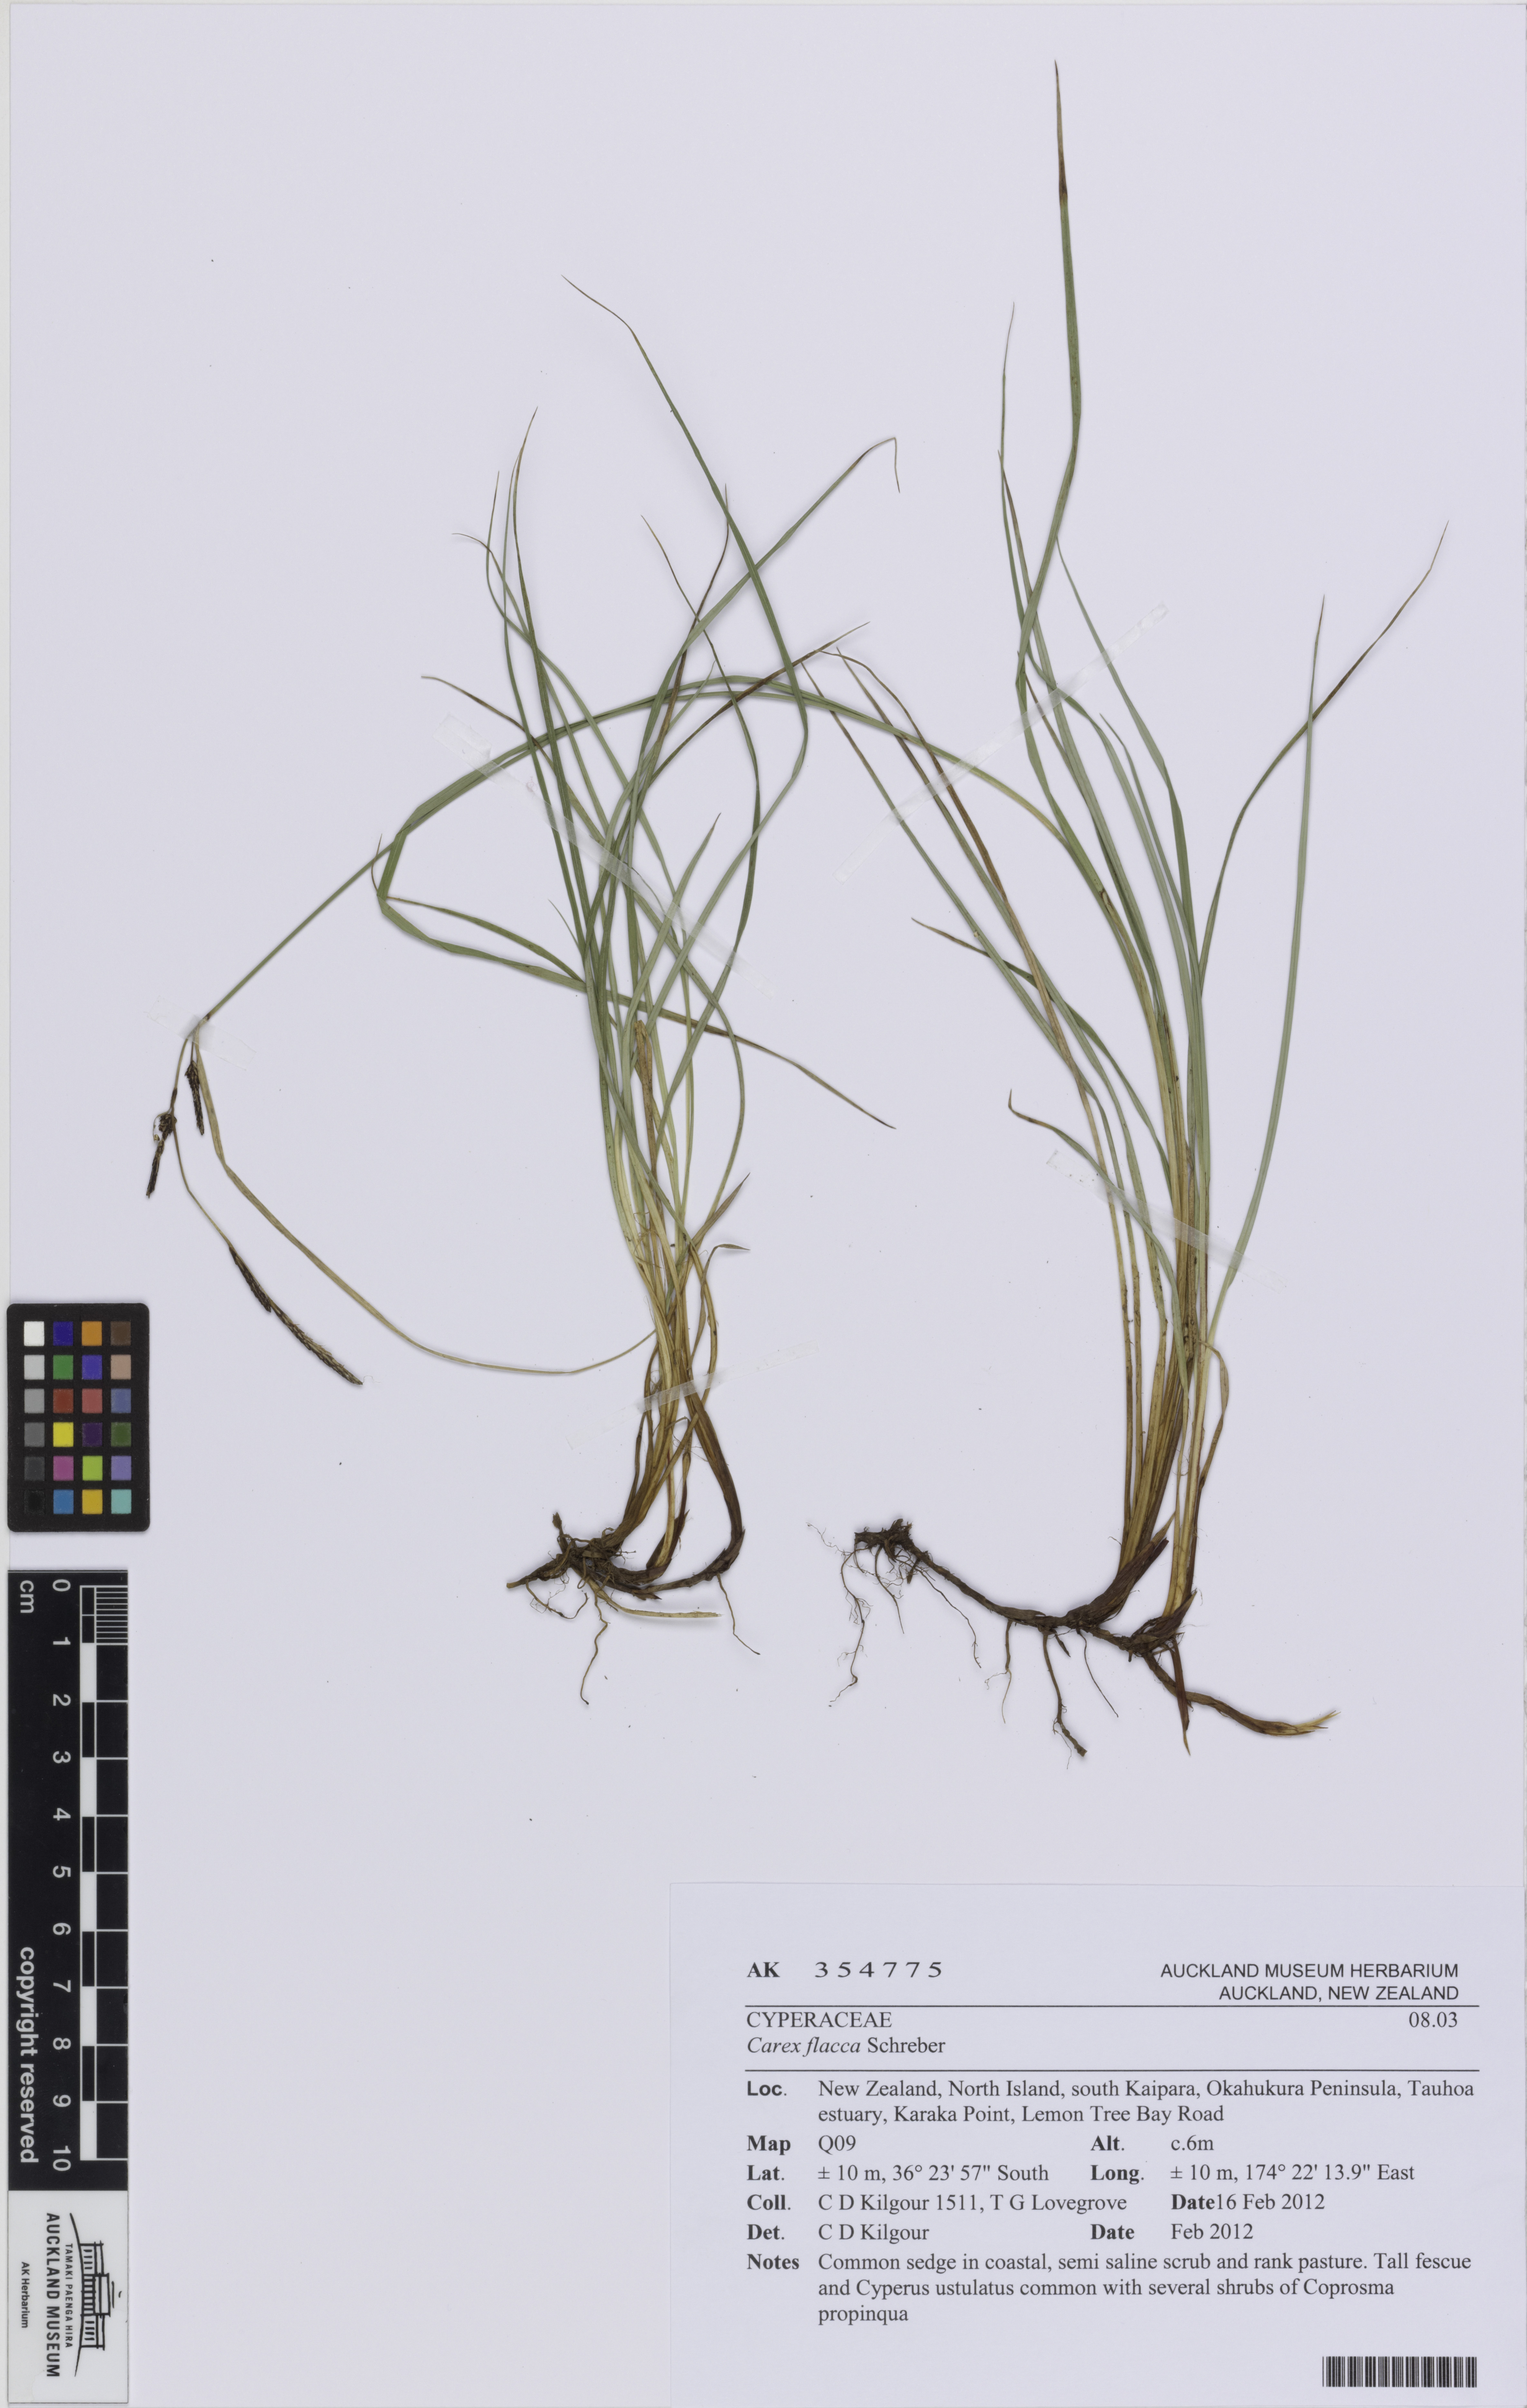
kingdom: Plantae
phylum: Tracheophyta
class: Liliopsida
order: Poales
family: Cyperaceae
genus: Carex
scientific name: Carex flacca
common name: Glaucous sedge
